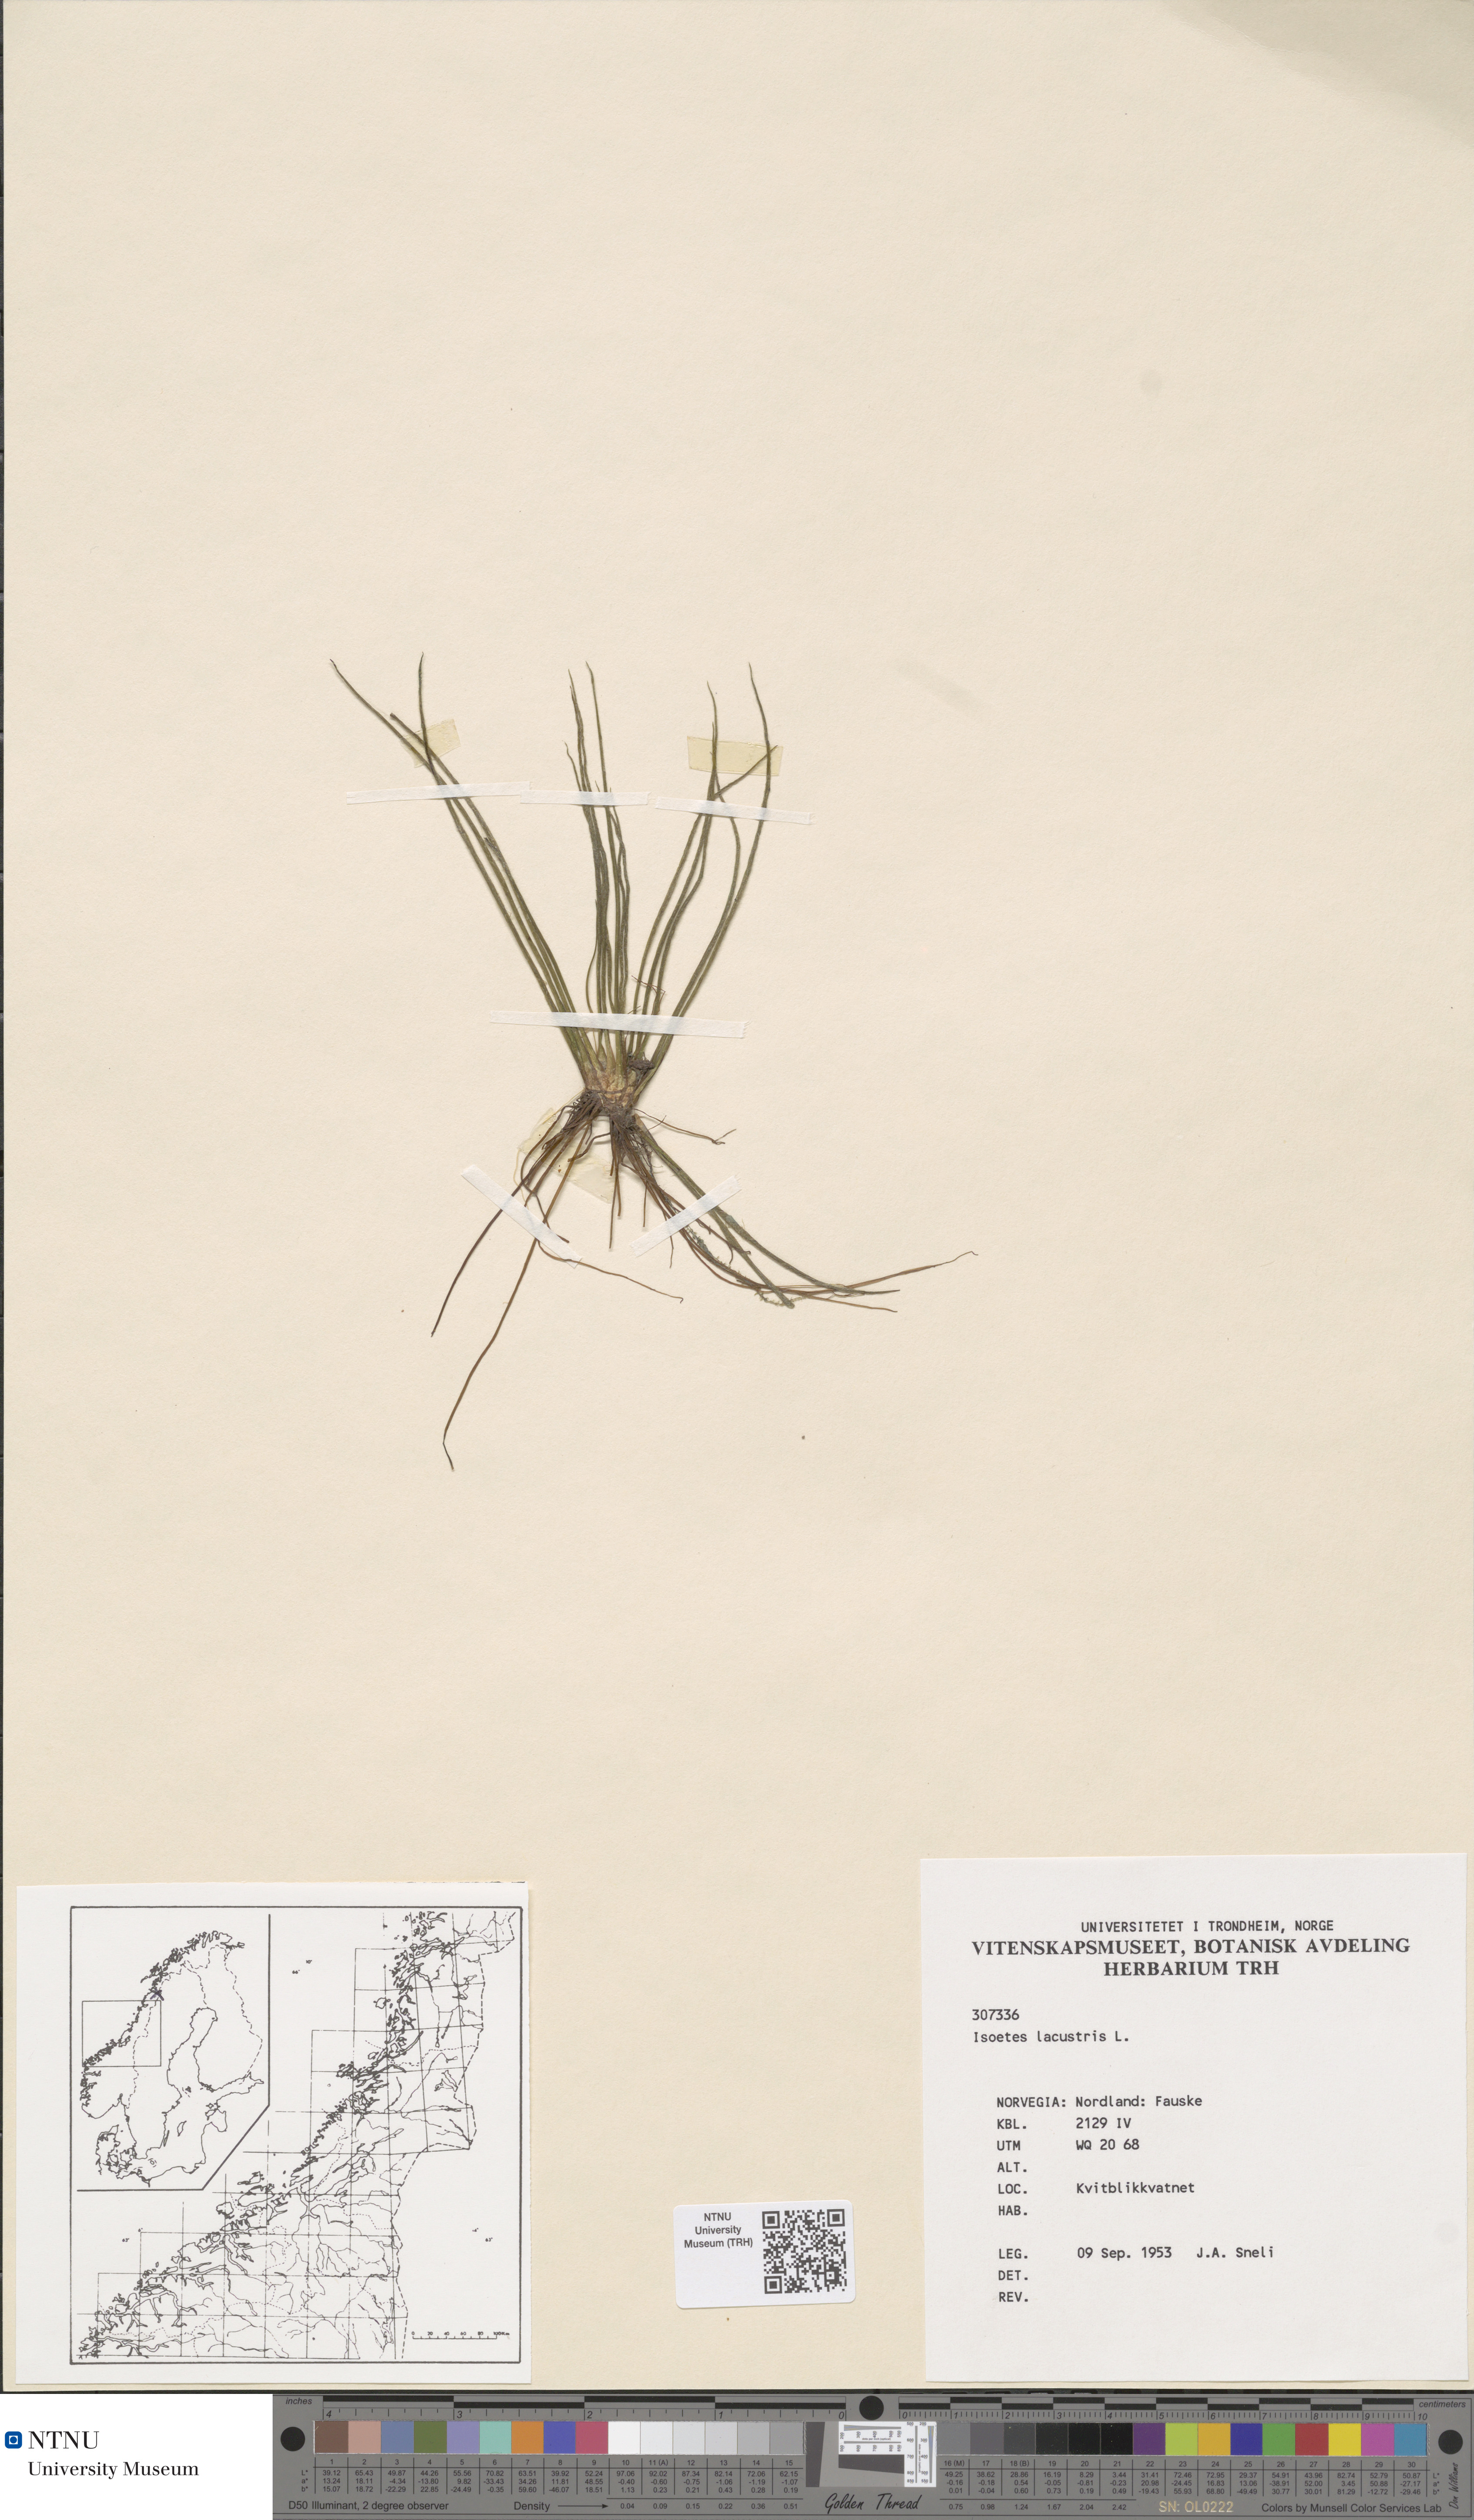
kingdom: Plantae
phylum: Tracheophyta
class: Lycopodiopsida
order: Isoetales
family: Isoetaceae
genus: Isoetes
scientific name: Isoetes lacustris
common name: Common quillwort
